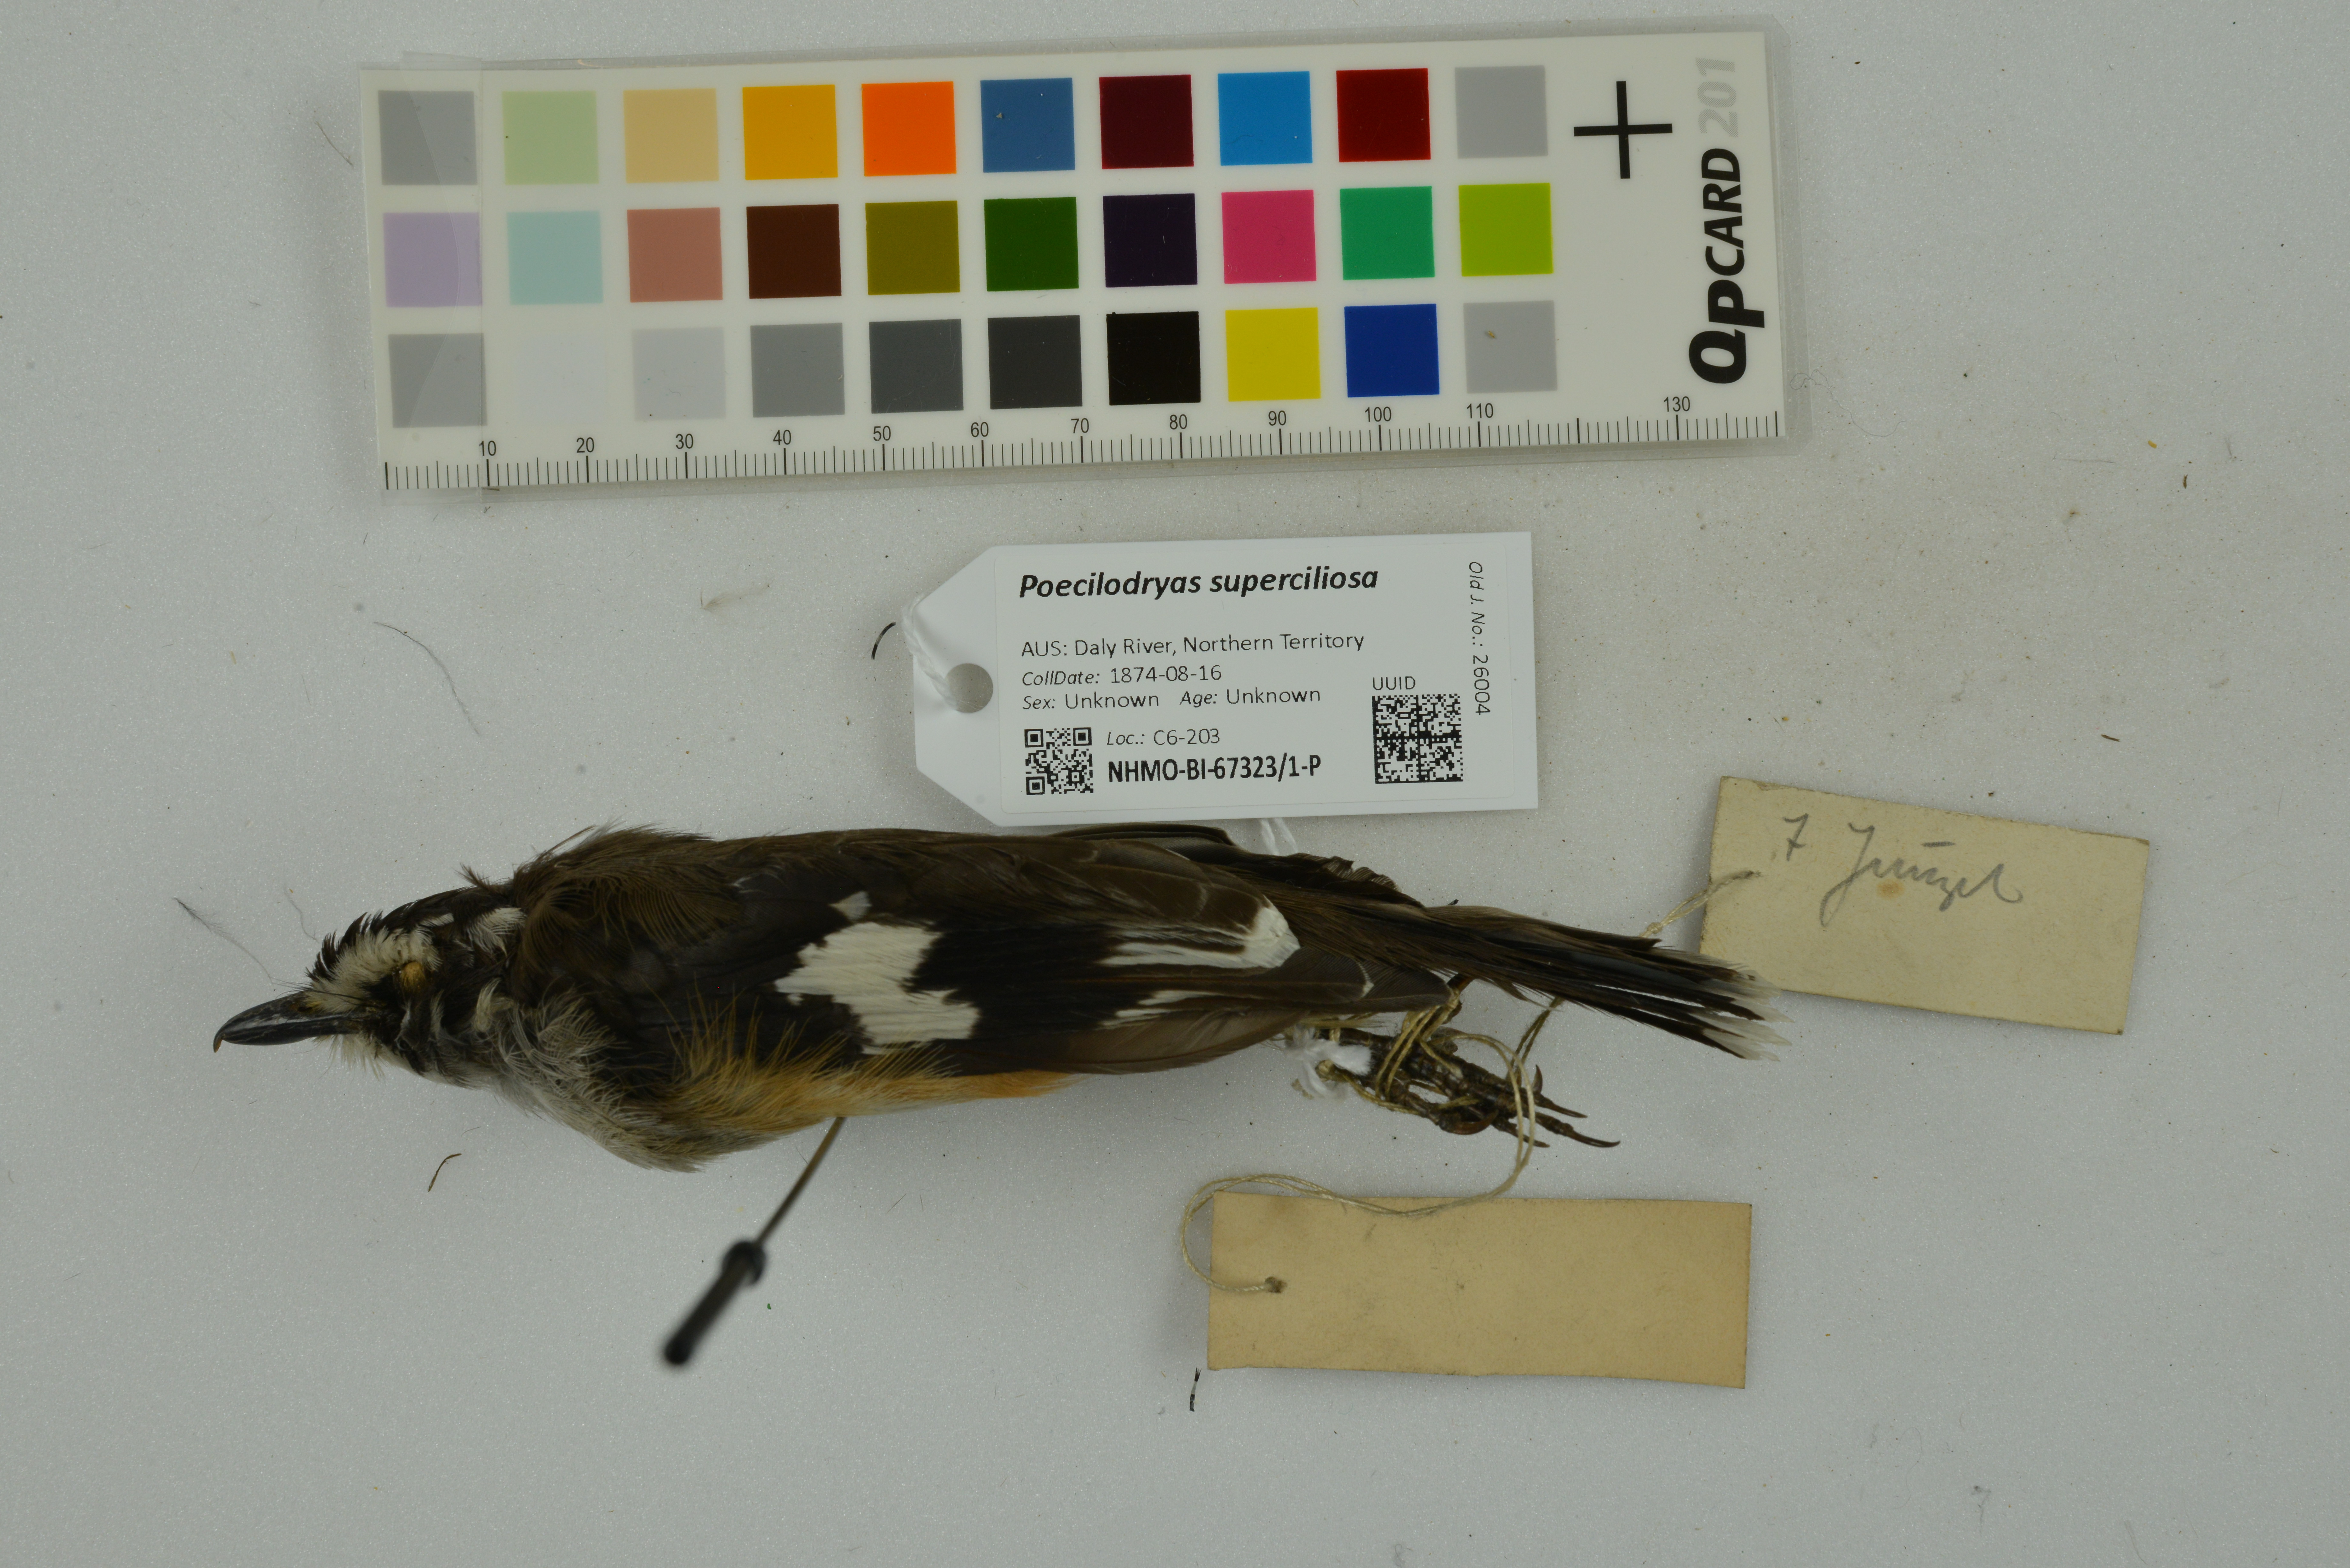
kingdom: Animalia
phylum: Chordata
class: Aves
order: Passeriformes
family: Petroicidae
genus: Poecilodryas
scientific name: Poecilodryas superciliosa
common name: White-browed robin
